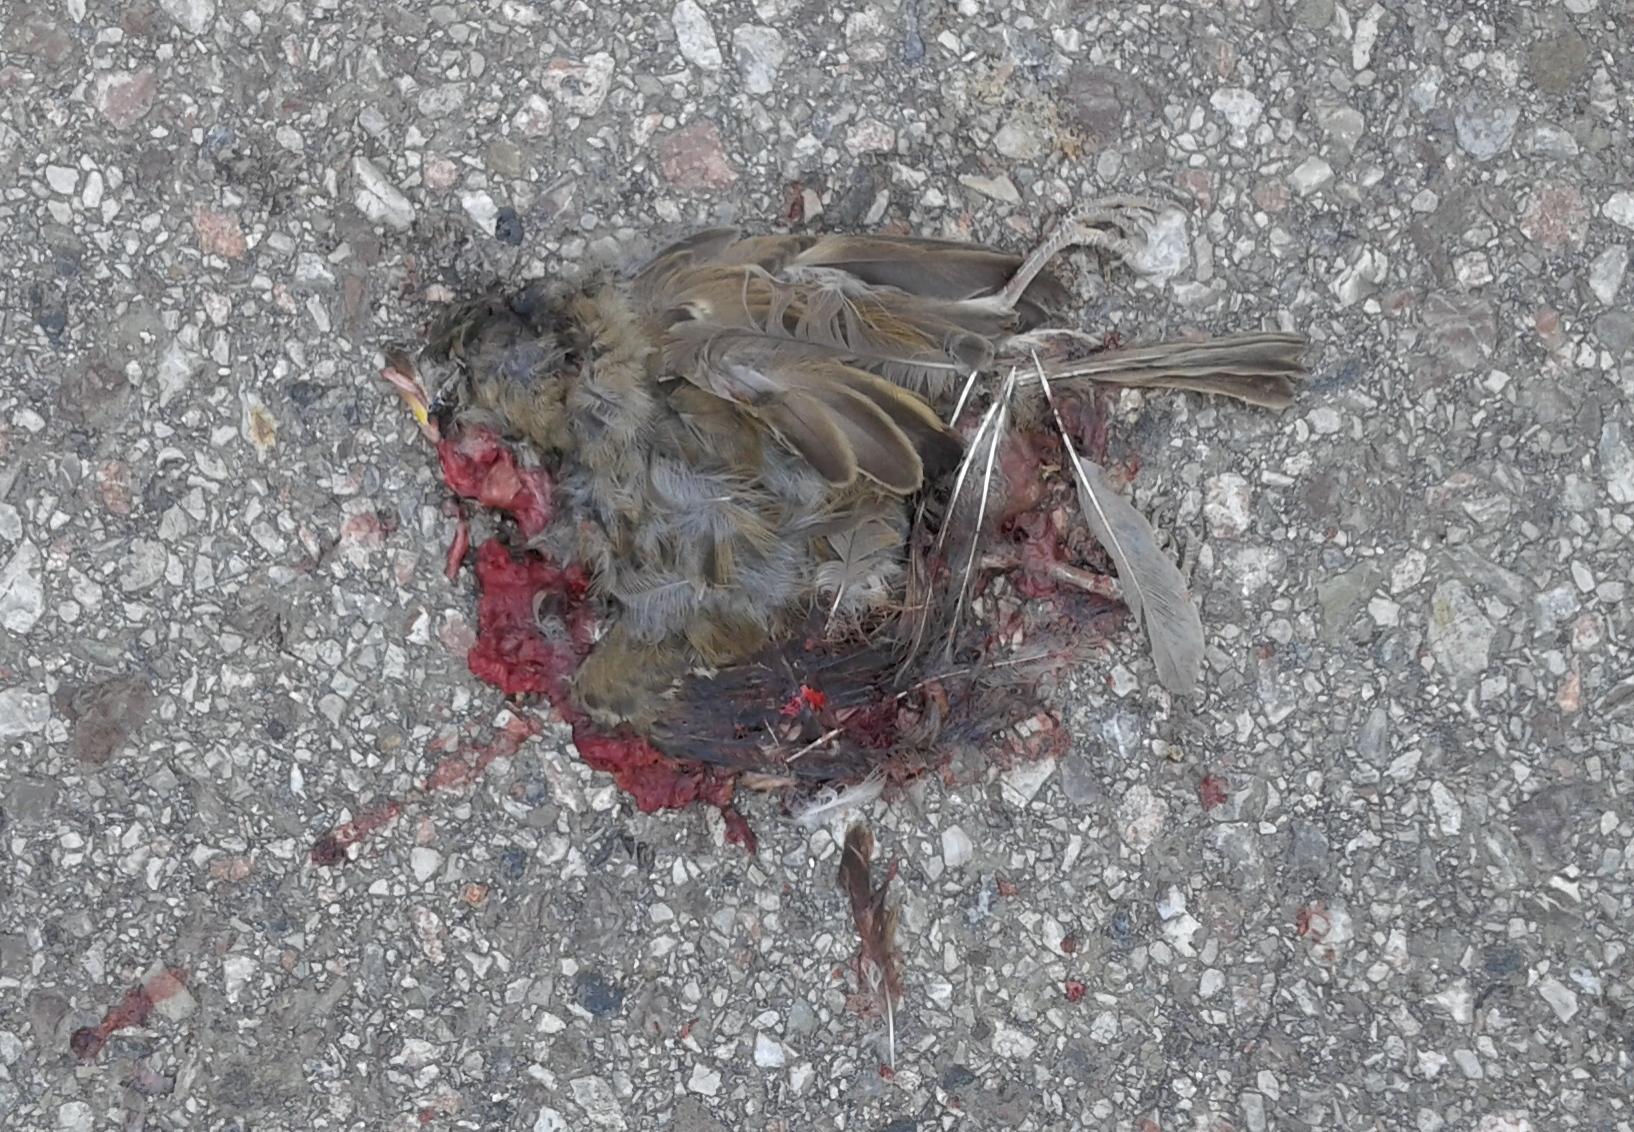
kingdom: Animalia
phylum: Chordata
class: Aves
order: Passeriformes
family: Passeridae
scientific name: Passeridae
